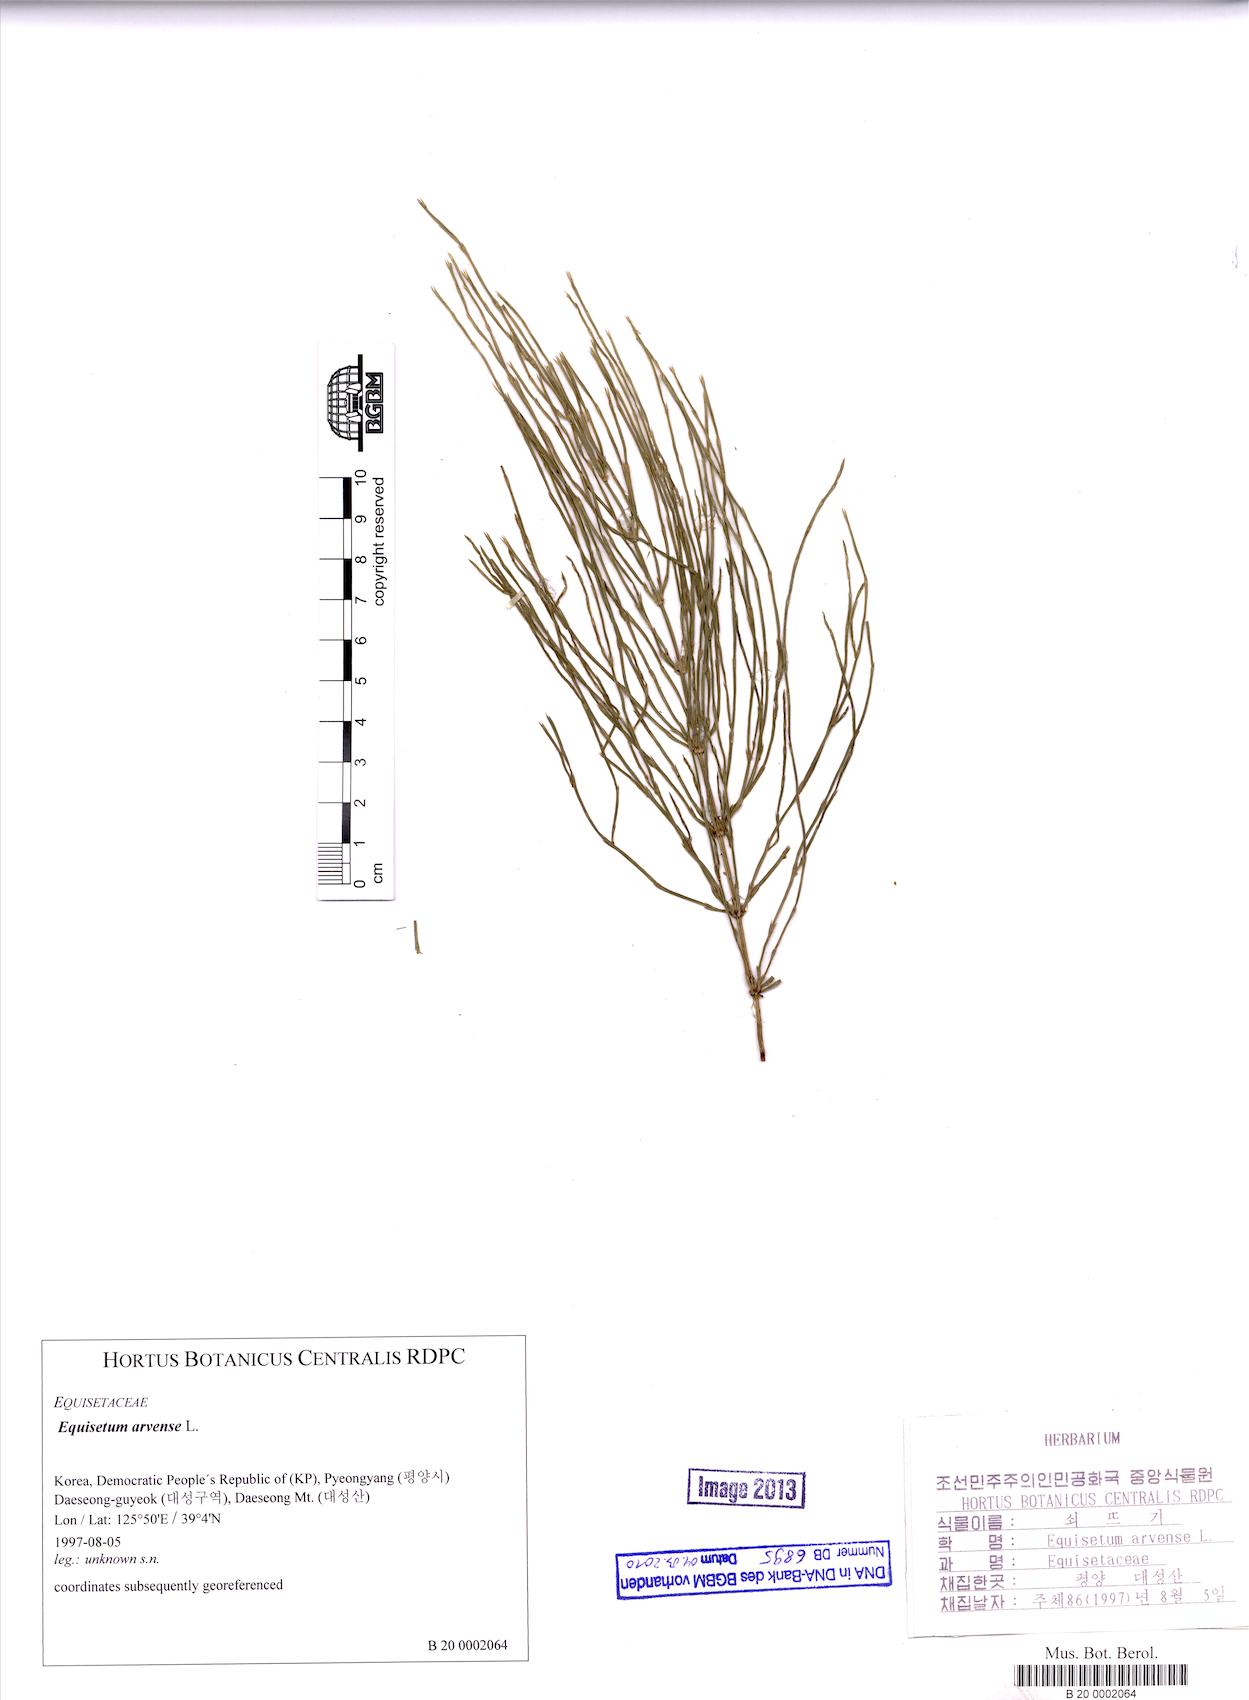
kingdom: Plantae
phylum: Tracheophyta
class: Polypodiopsida
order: Equisetales
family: Equisetaceae
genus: Equisetum
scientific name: Equisetum arvense
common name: Field horsetail
